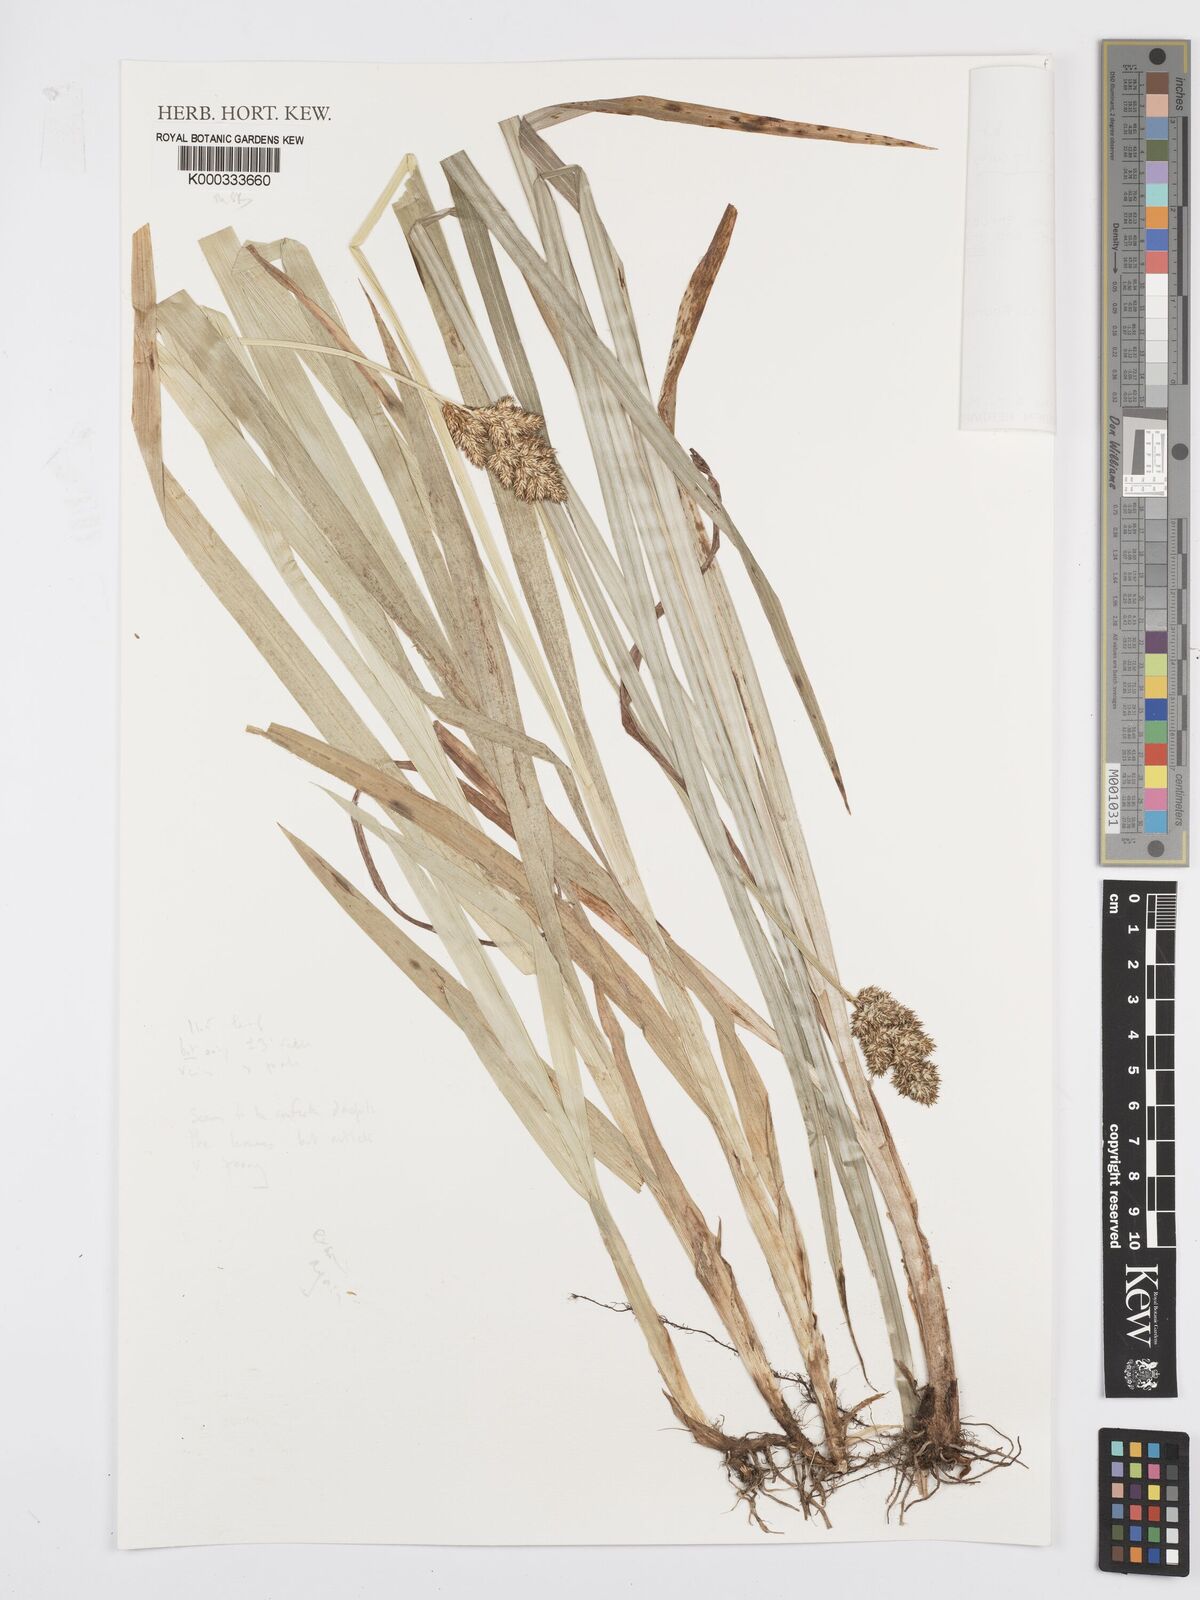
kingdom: Plantae
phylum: Tracheophyta
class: Liliopsida
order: Poales
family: Cyperaceae
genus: Carex
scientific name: Carex conferta
